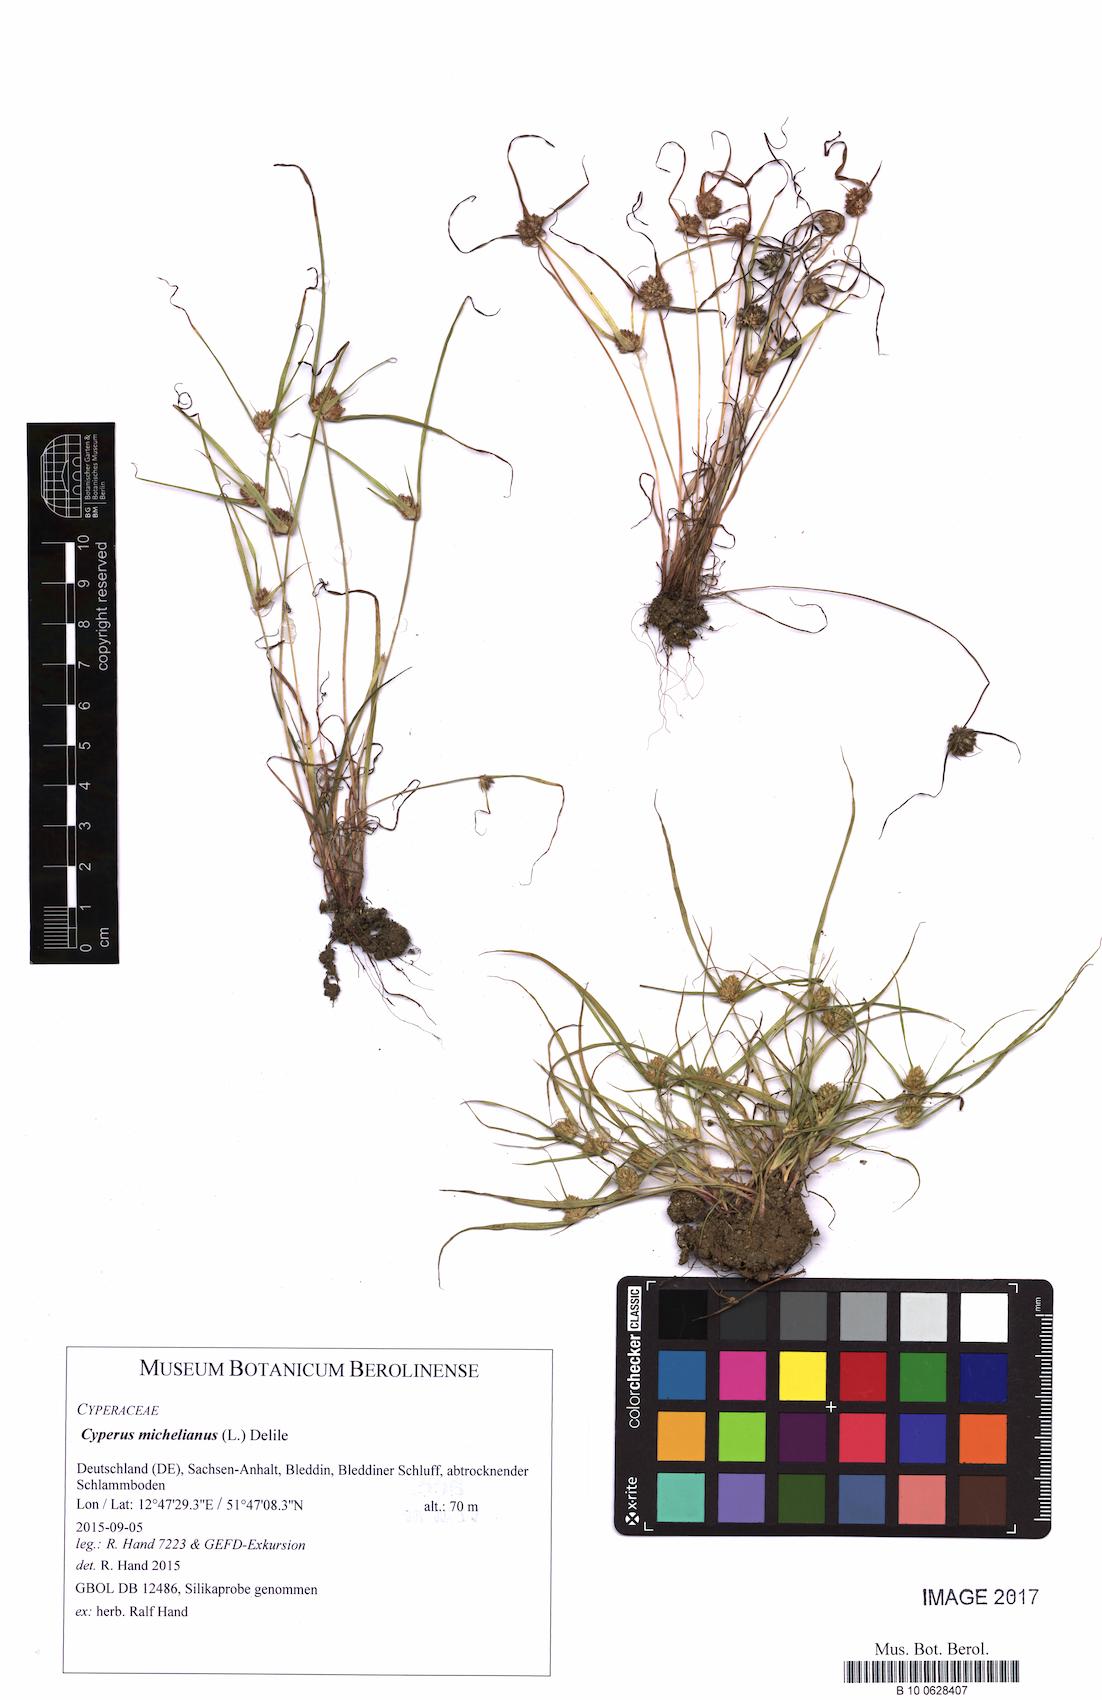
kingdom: Plantae
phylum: Tracheophyta
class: Liliopsida
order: Poales
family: Cyperaceae
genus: Cyperus
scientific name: Cyperus michelianus
